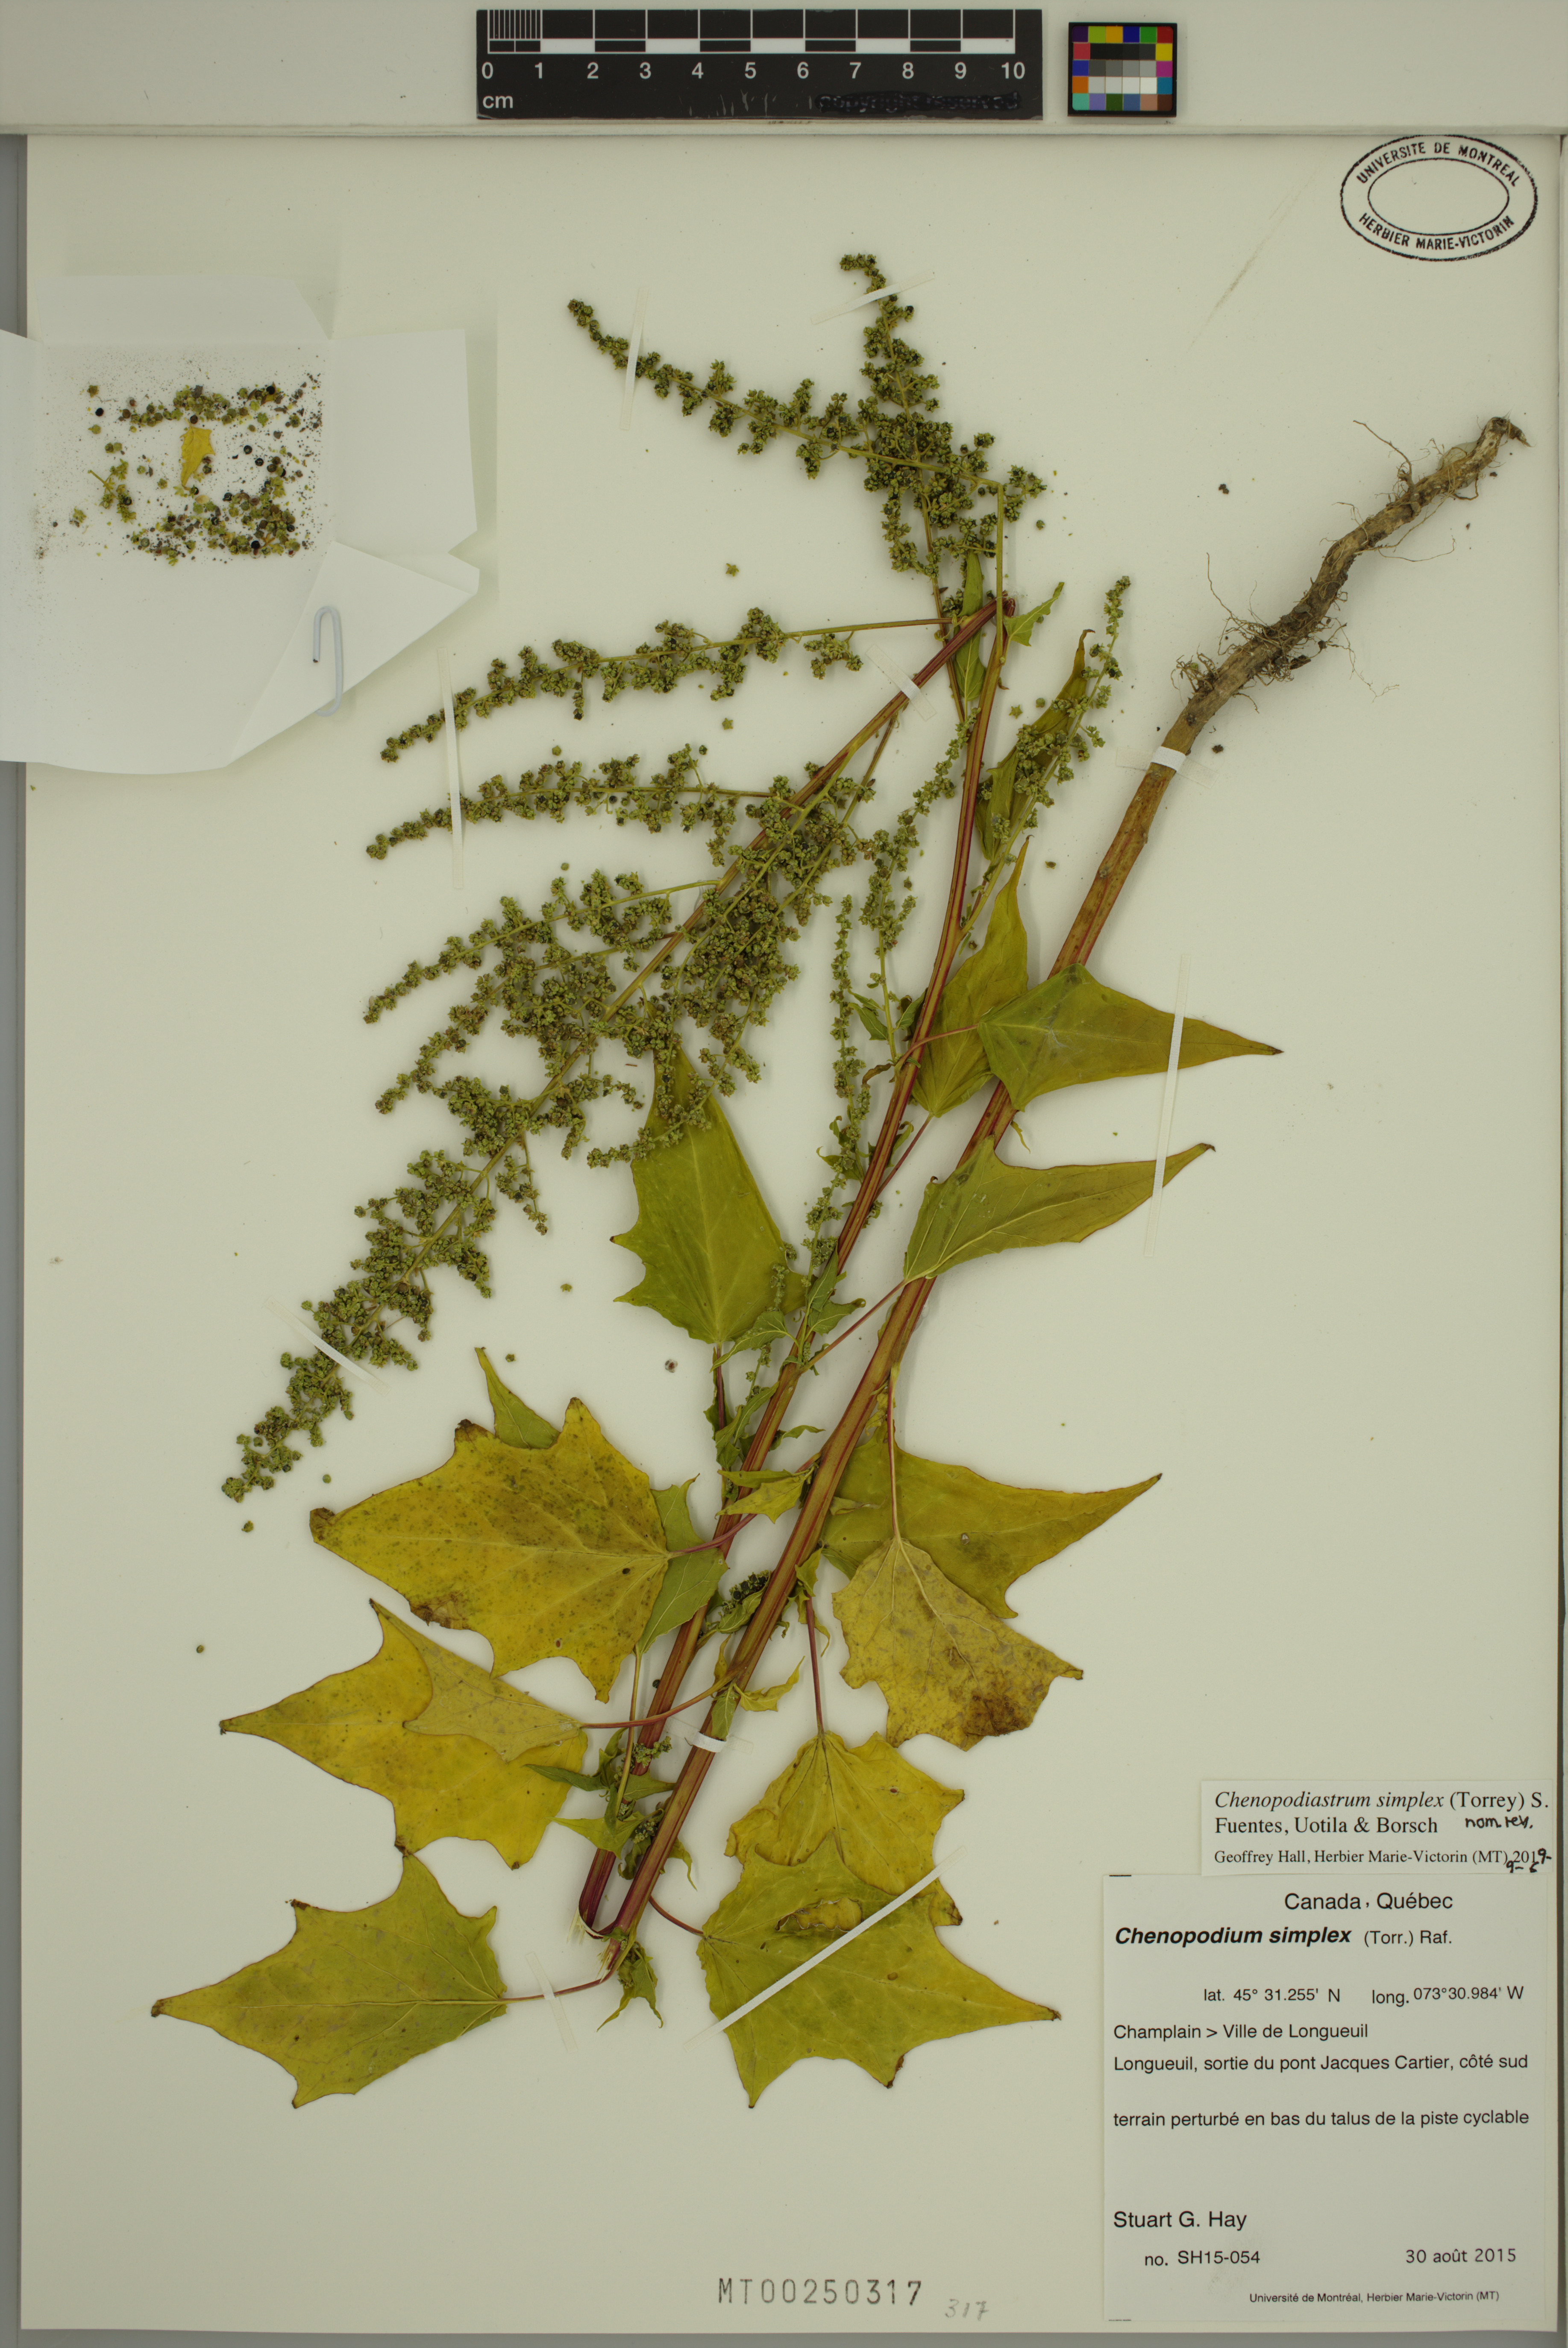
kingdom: Plantae
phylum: Tracheophyta
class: Magnoliopsida
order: Caryophyllales
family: Amaranthaceae
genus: Chenopodiastrum
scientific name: Chenopodiastrum simplex
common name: Large-seed goosefoot
